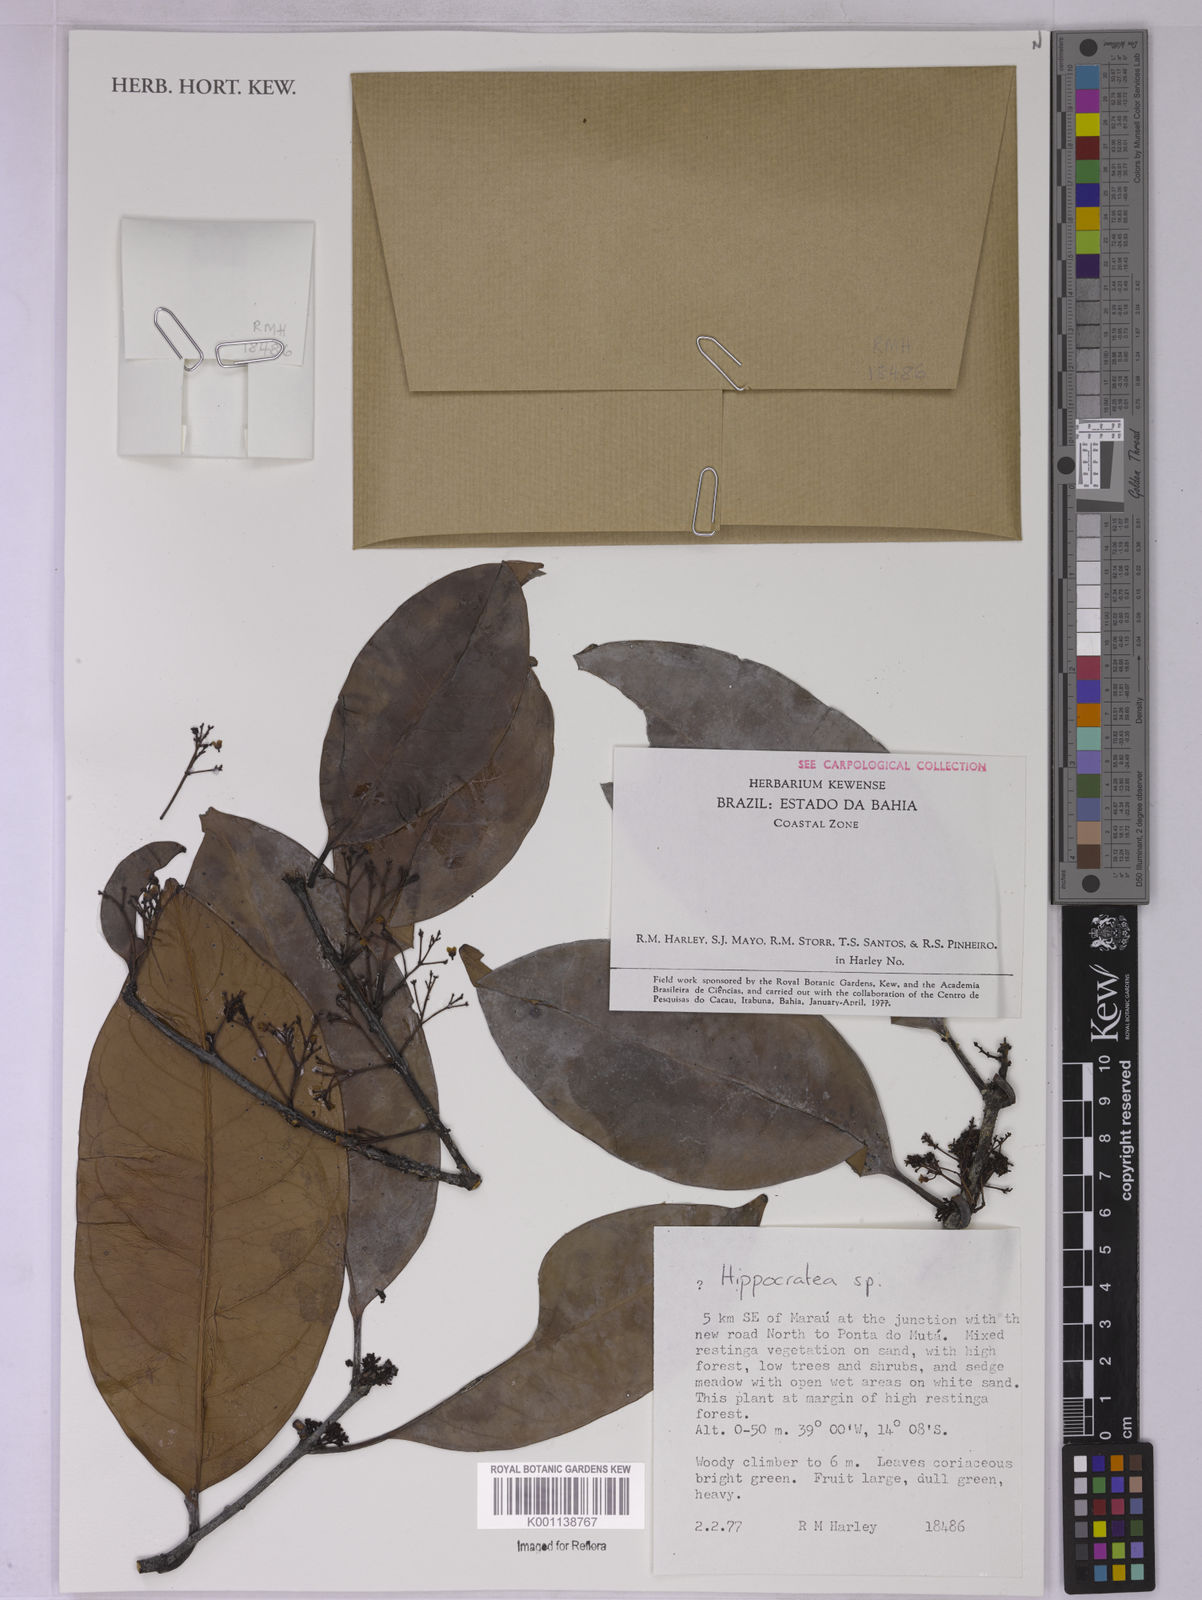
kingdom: Plantae
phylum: Tracheophyta
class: Magnoliopsida
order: Celastrales
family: Celastraceae
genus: Hippocratea
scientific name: Hippocratea
